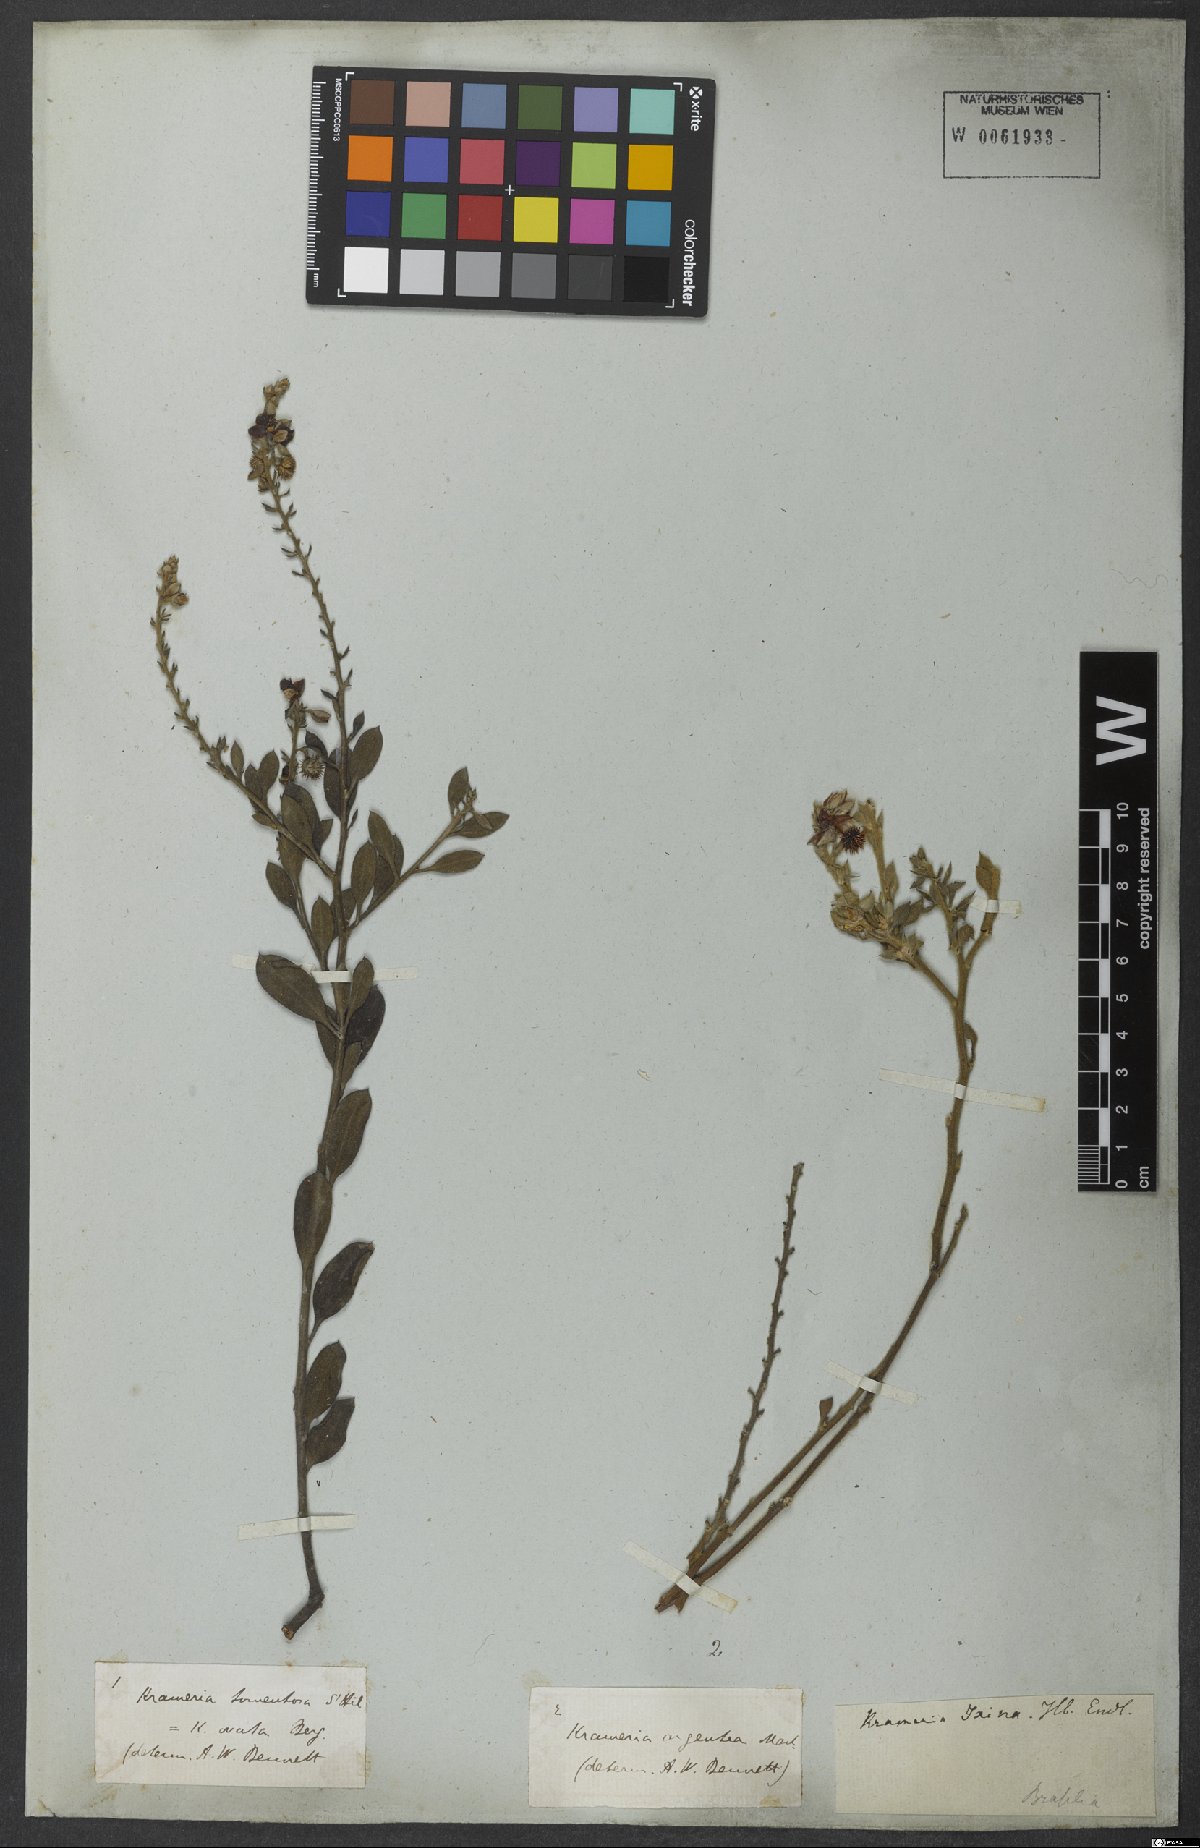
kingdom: Plantae
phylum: Tracheophyta
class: Magnoliopsida
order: Zygophyllales
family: Krameriaceae
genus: Krameria
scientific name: Krameria argentea
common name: Brown-rhatany,-ceará-rhatany
